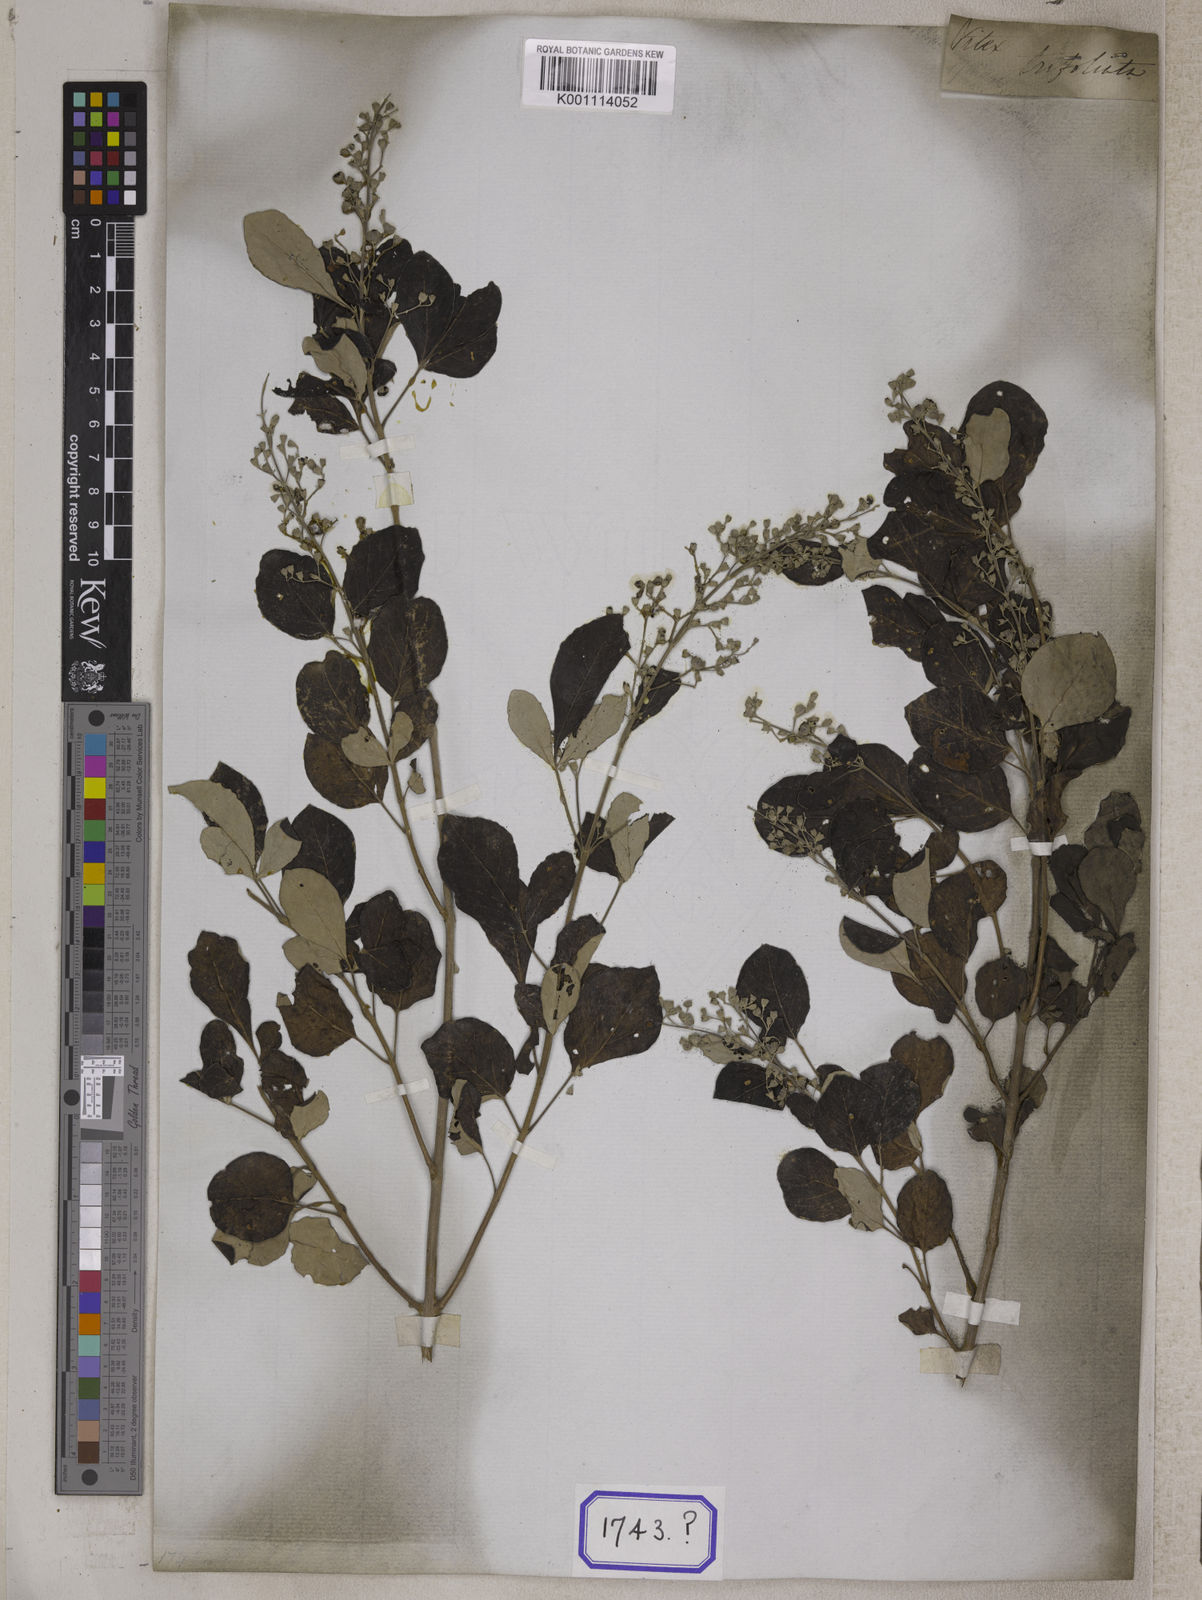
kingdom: Plantae
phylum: Tracheophyta
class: Magnoliopsida
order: Lamiales
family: Lamiaceae
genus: Vitex
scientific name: Vitex trifolia
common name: Simpleleaf chastetree
